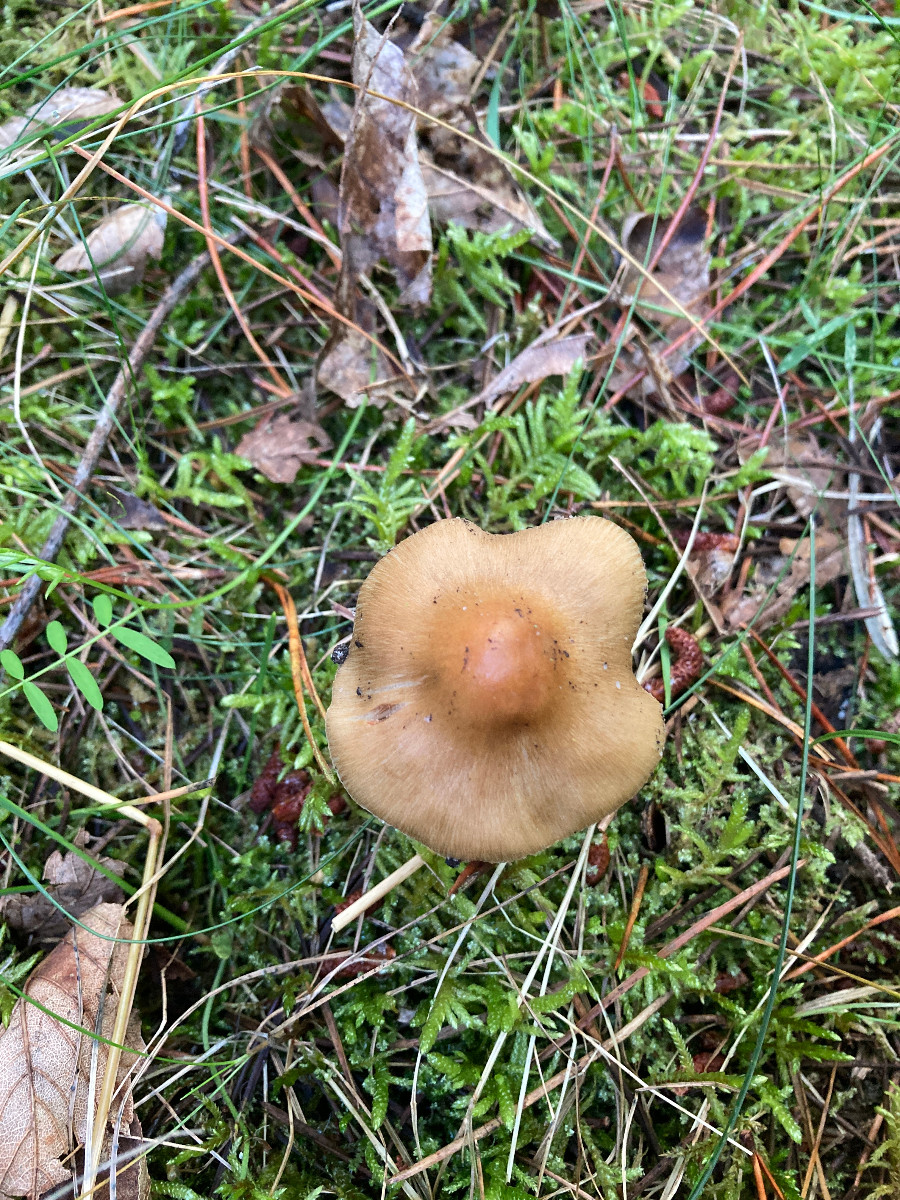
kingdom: Fungi
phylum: Basidiomycota
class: Agaricomycetes
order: Agaricales
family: Inocybaceae
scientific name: Inocybaceae
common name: trævlhatfamilien
